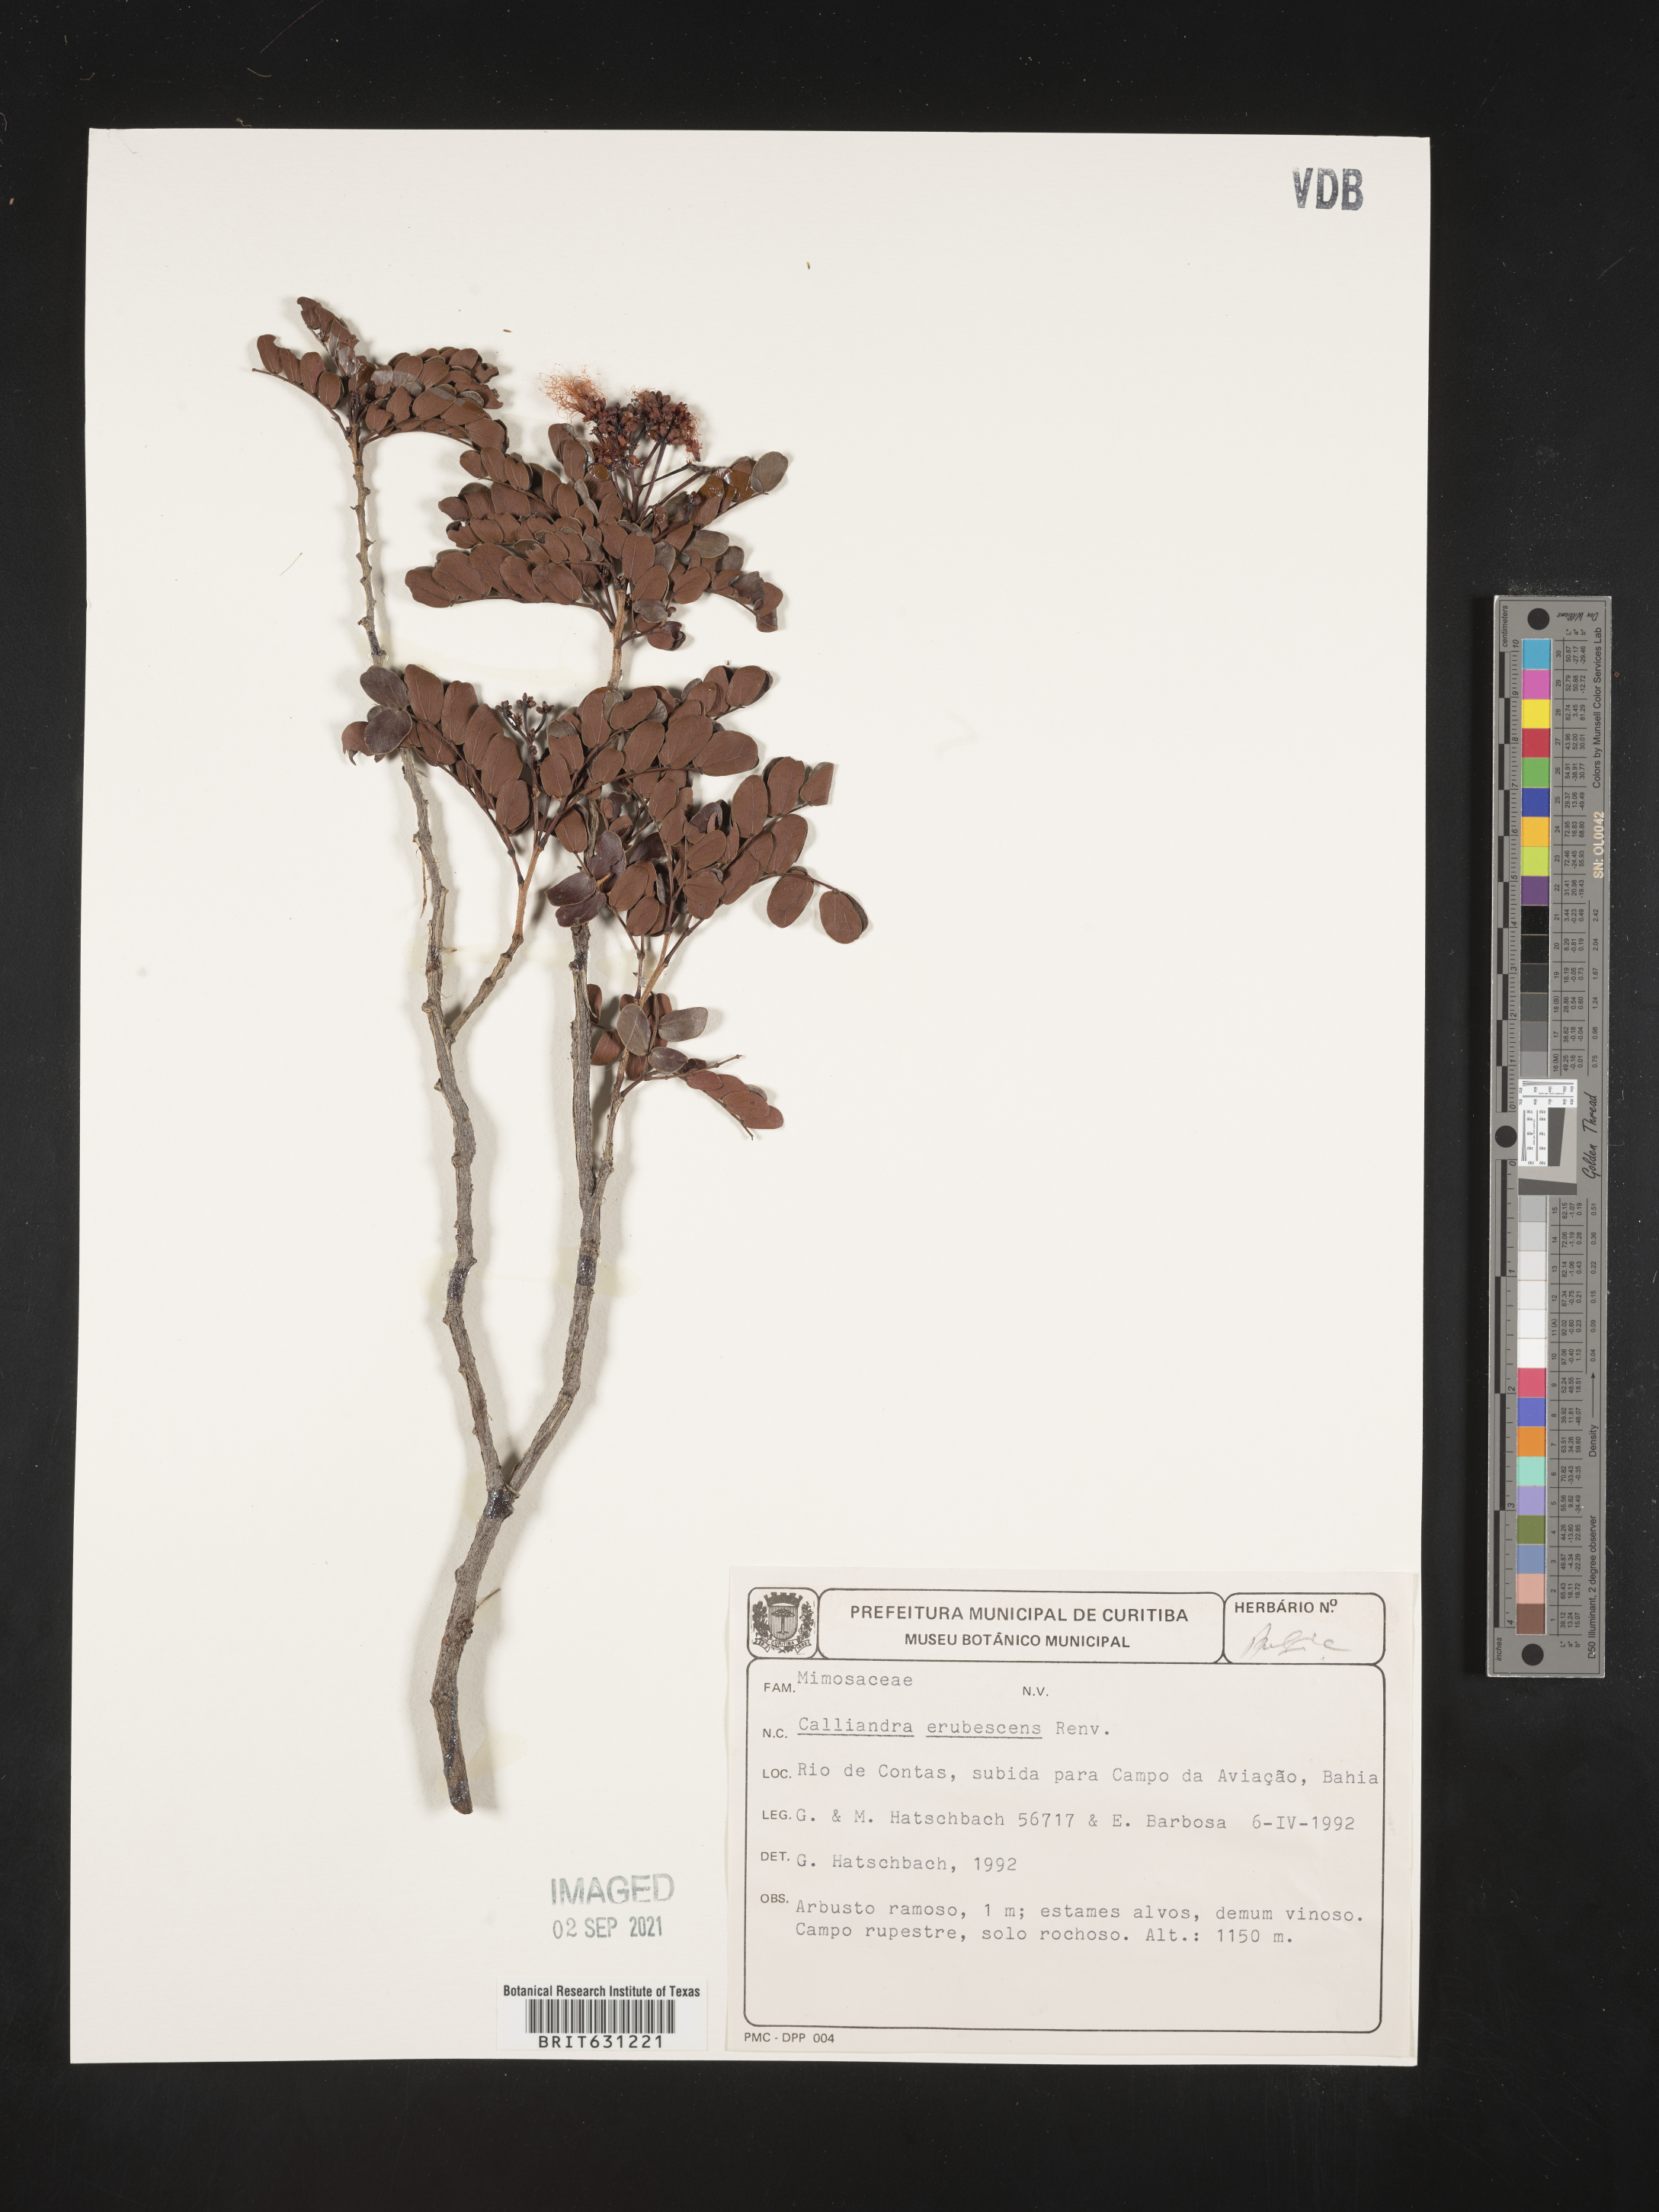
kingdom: Plantae
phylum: Tracheophyta
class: Magnoliopsida
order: Fabales
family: Fabaceae
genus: Calliandra
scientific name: Calliandra erubescens
